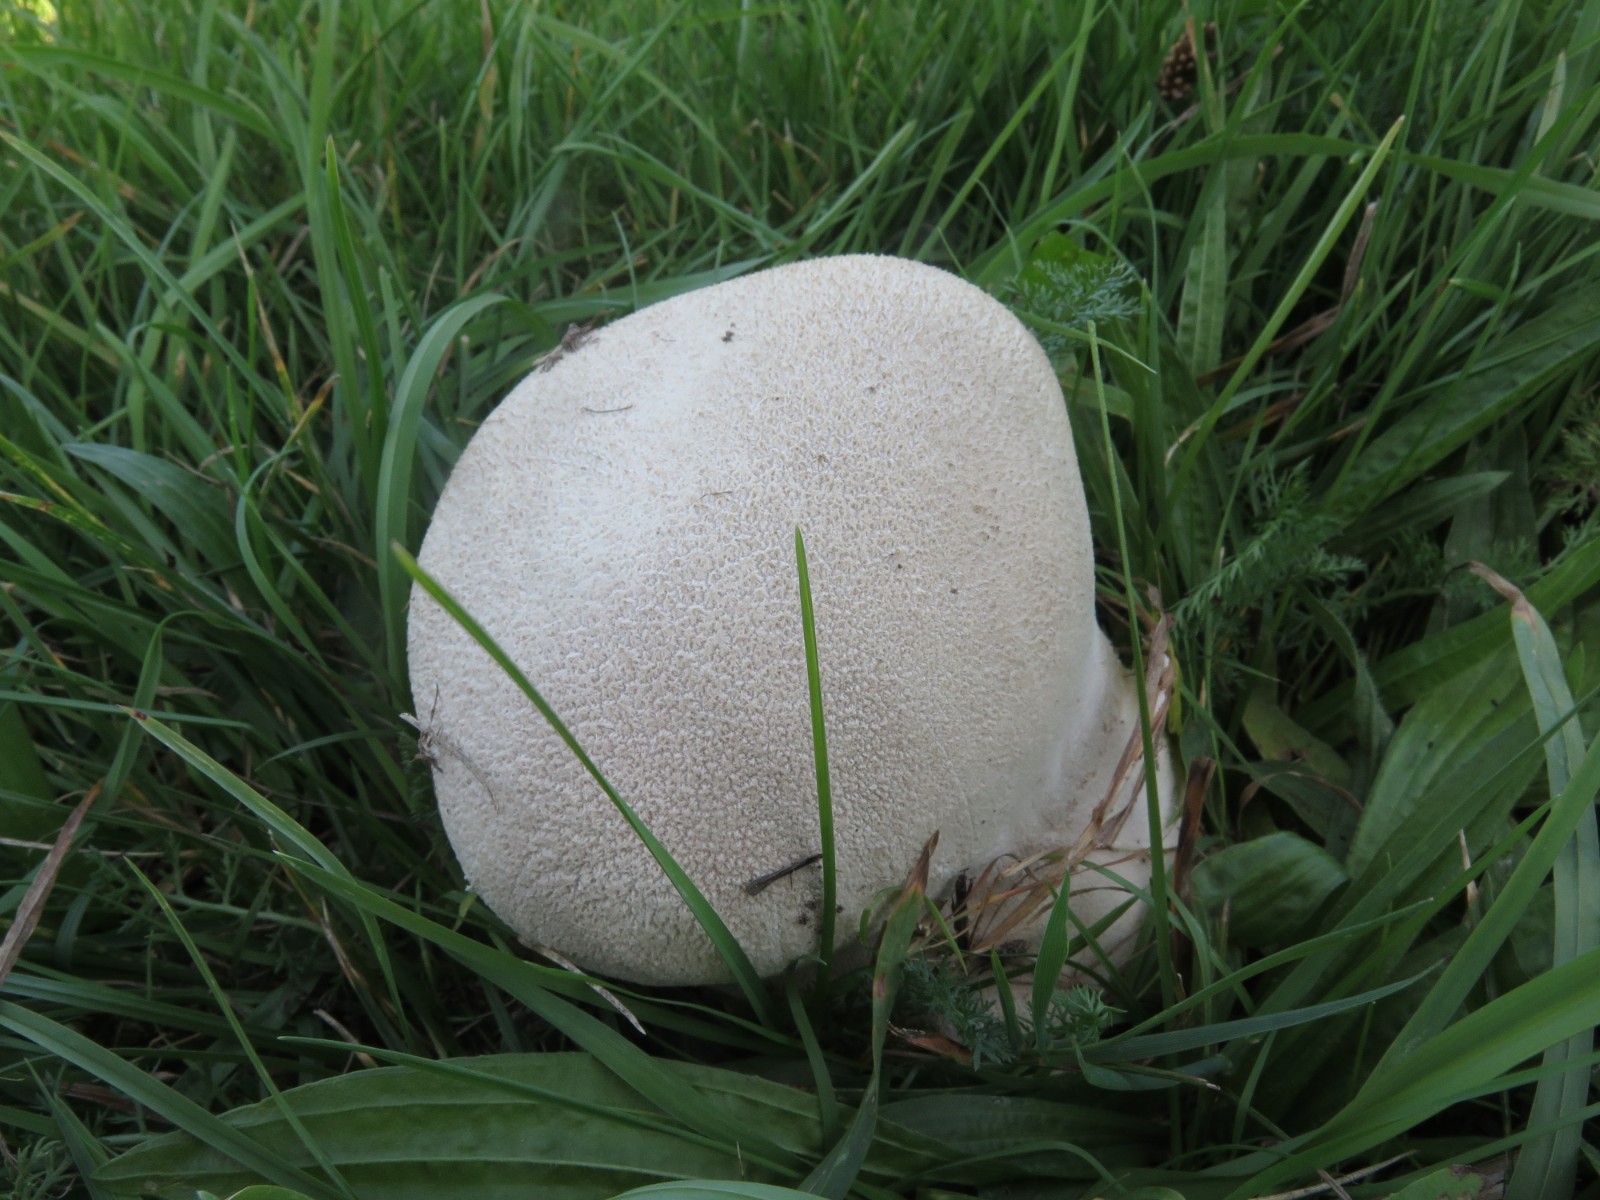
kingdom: Fungi
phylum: Basidiomycota
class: Agaricomycetes
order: Agaricales
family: Lycoperdaceae
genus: Bovistella
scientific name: Bovistella utriformis
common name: skællet støvbold
